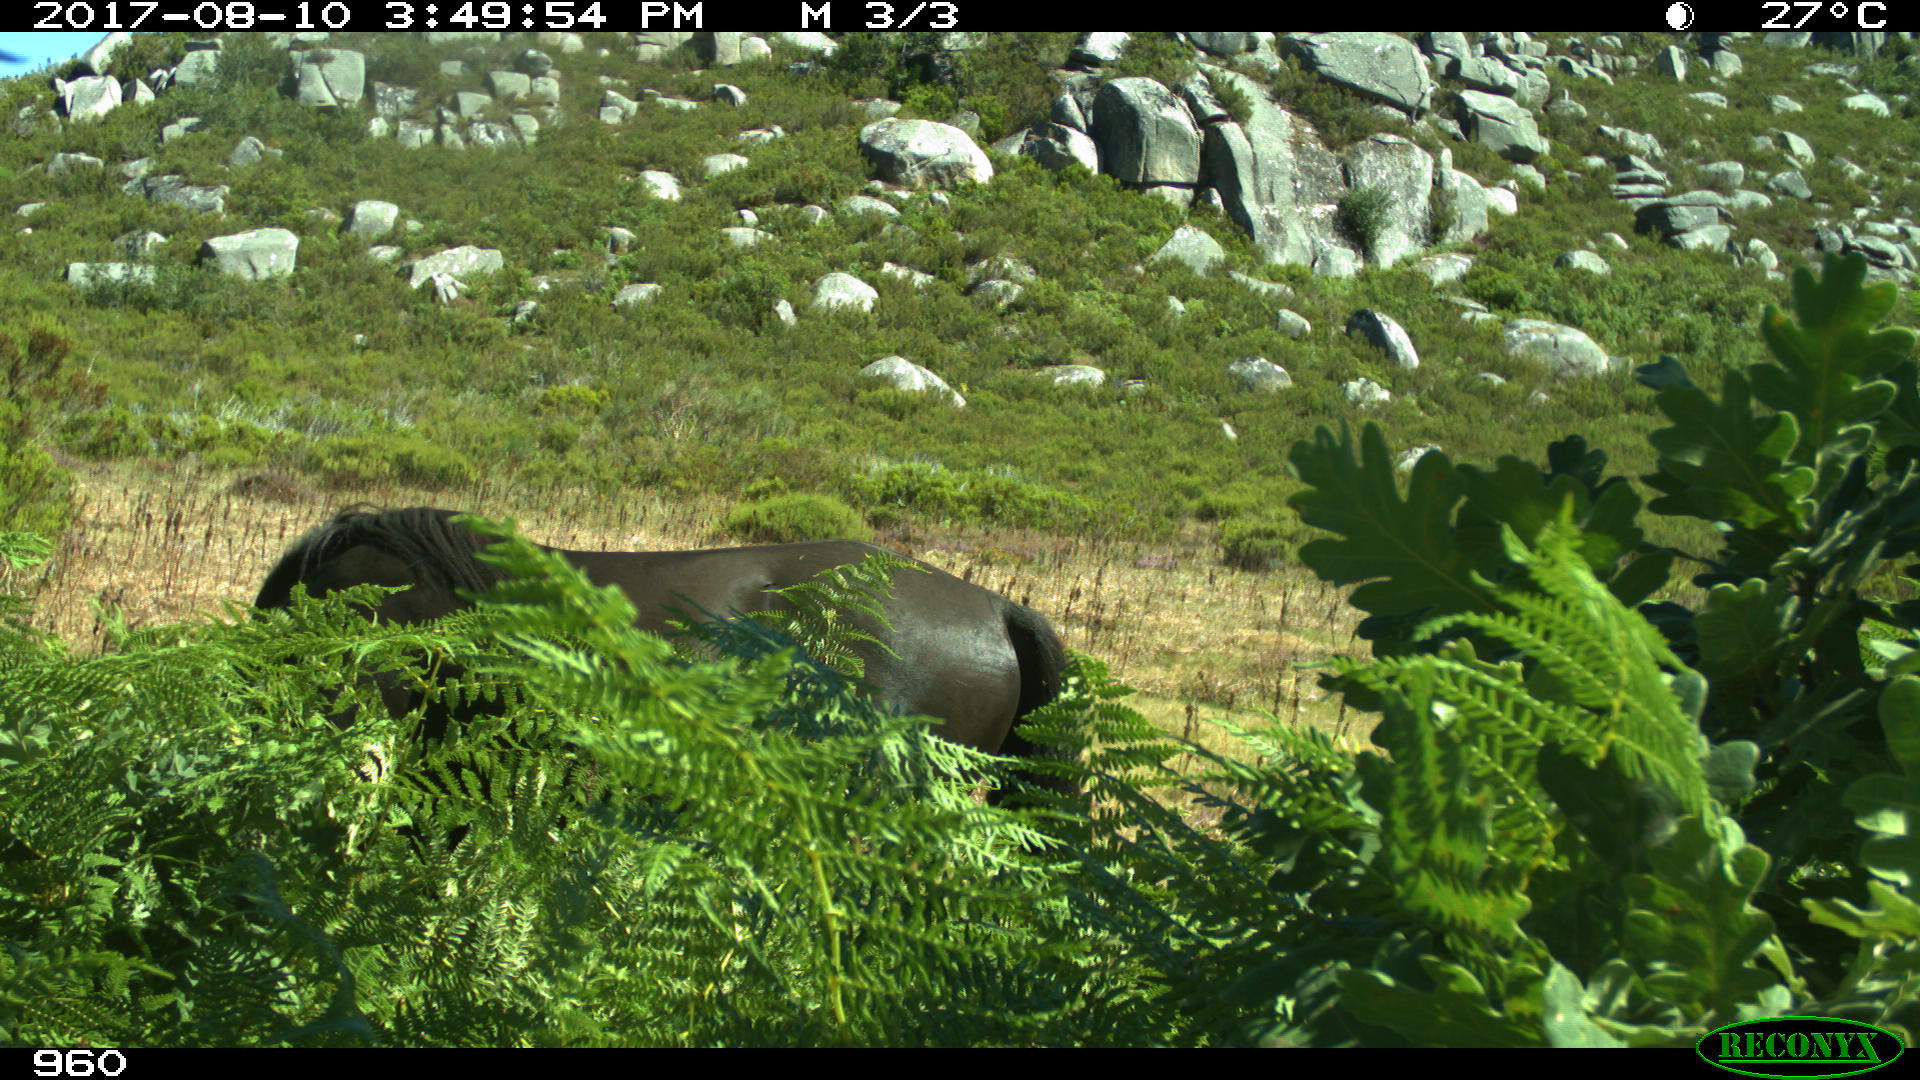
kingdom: Animalia
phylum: Chordata
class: Mammalia
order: Perissodactyla
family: Equidae
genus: Equus
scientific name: Equus caballus
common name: Horse
